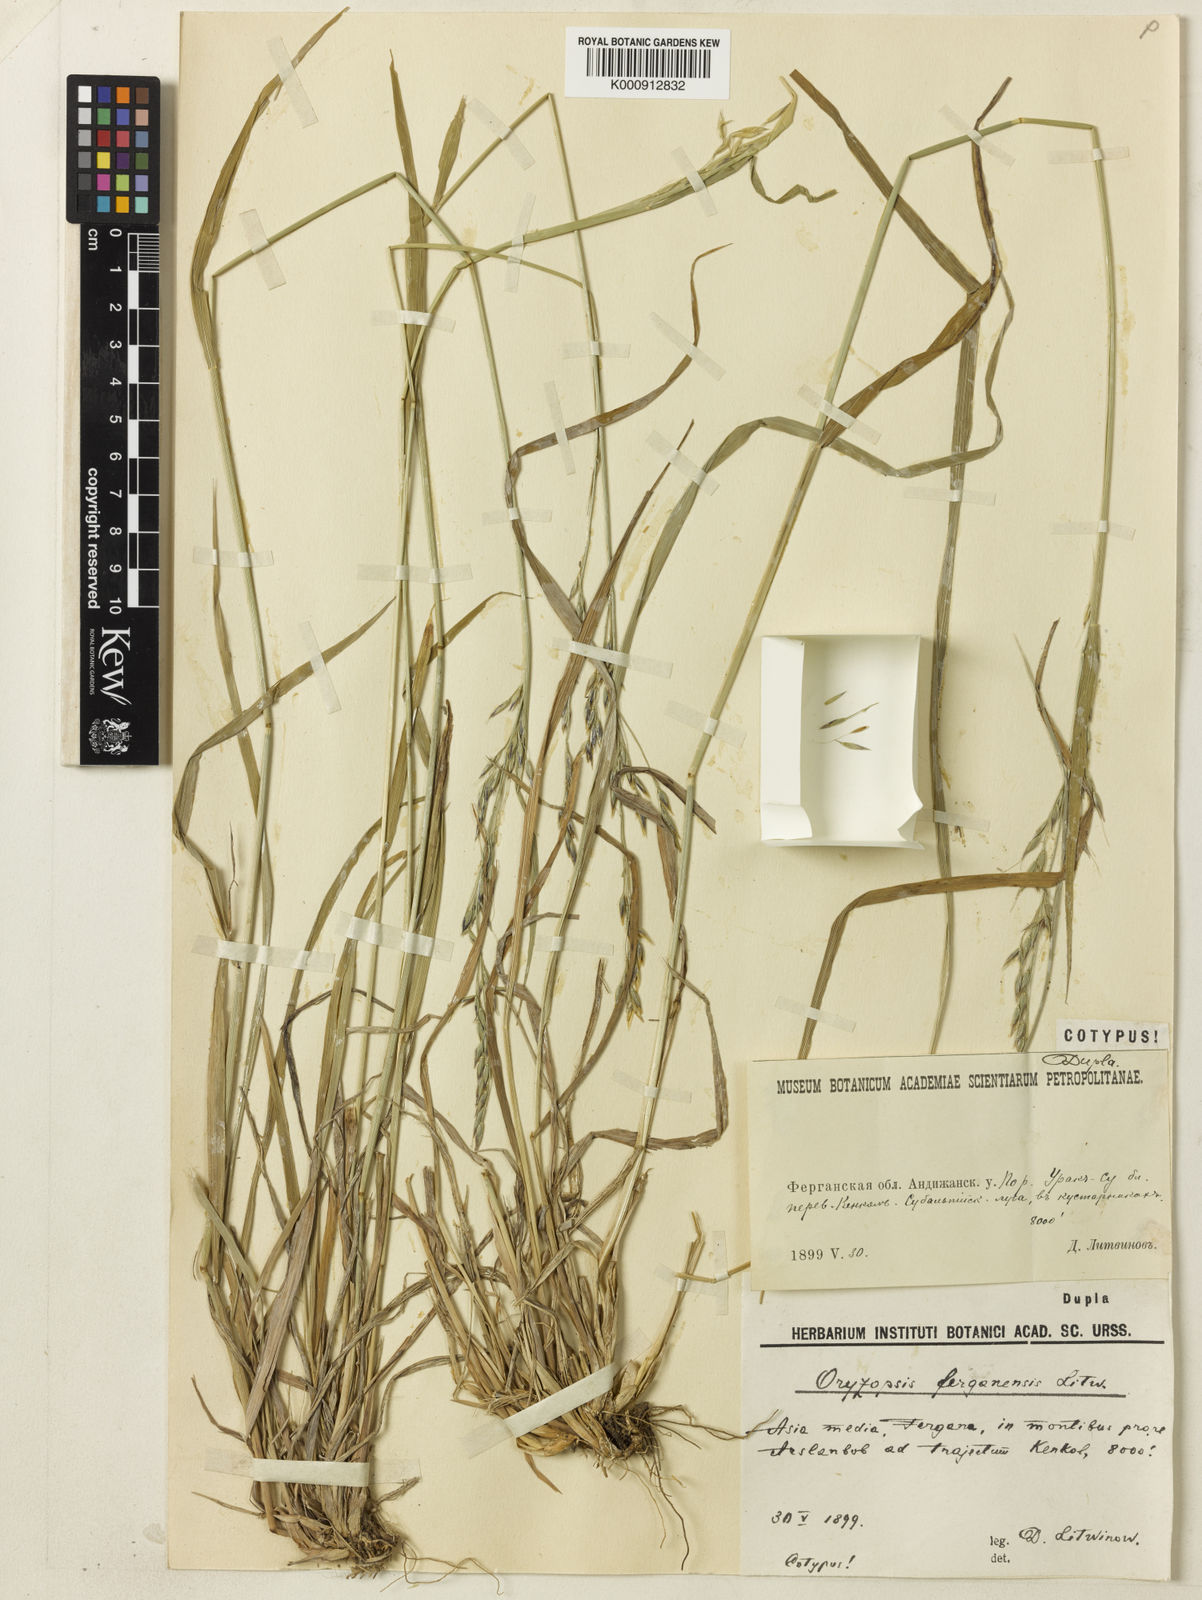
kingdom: Plantae
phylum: Tracheophyta
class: Liliopsida
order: Poales
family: Poaceae
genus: Piptatherum
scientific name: Piptatherum ferganense
